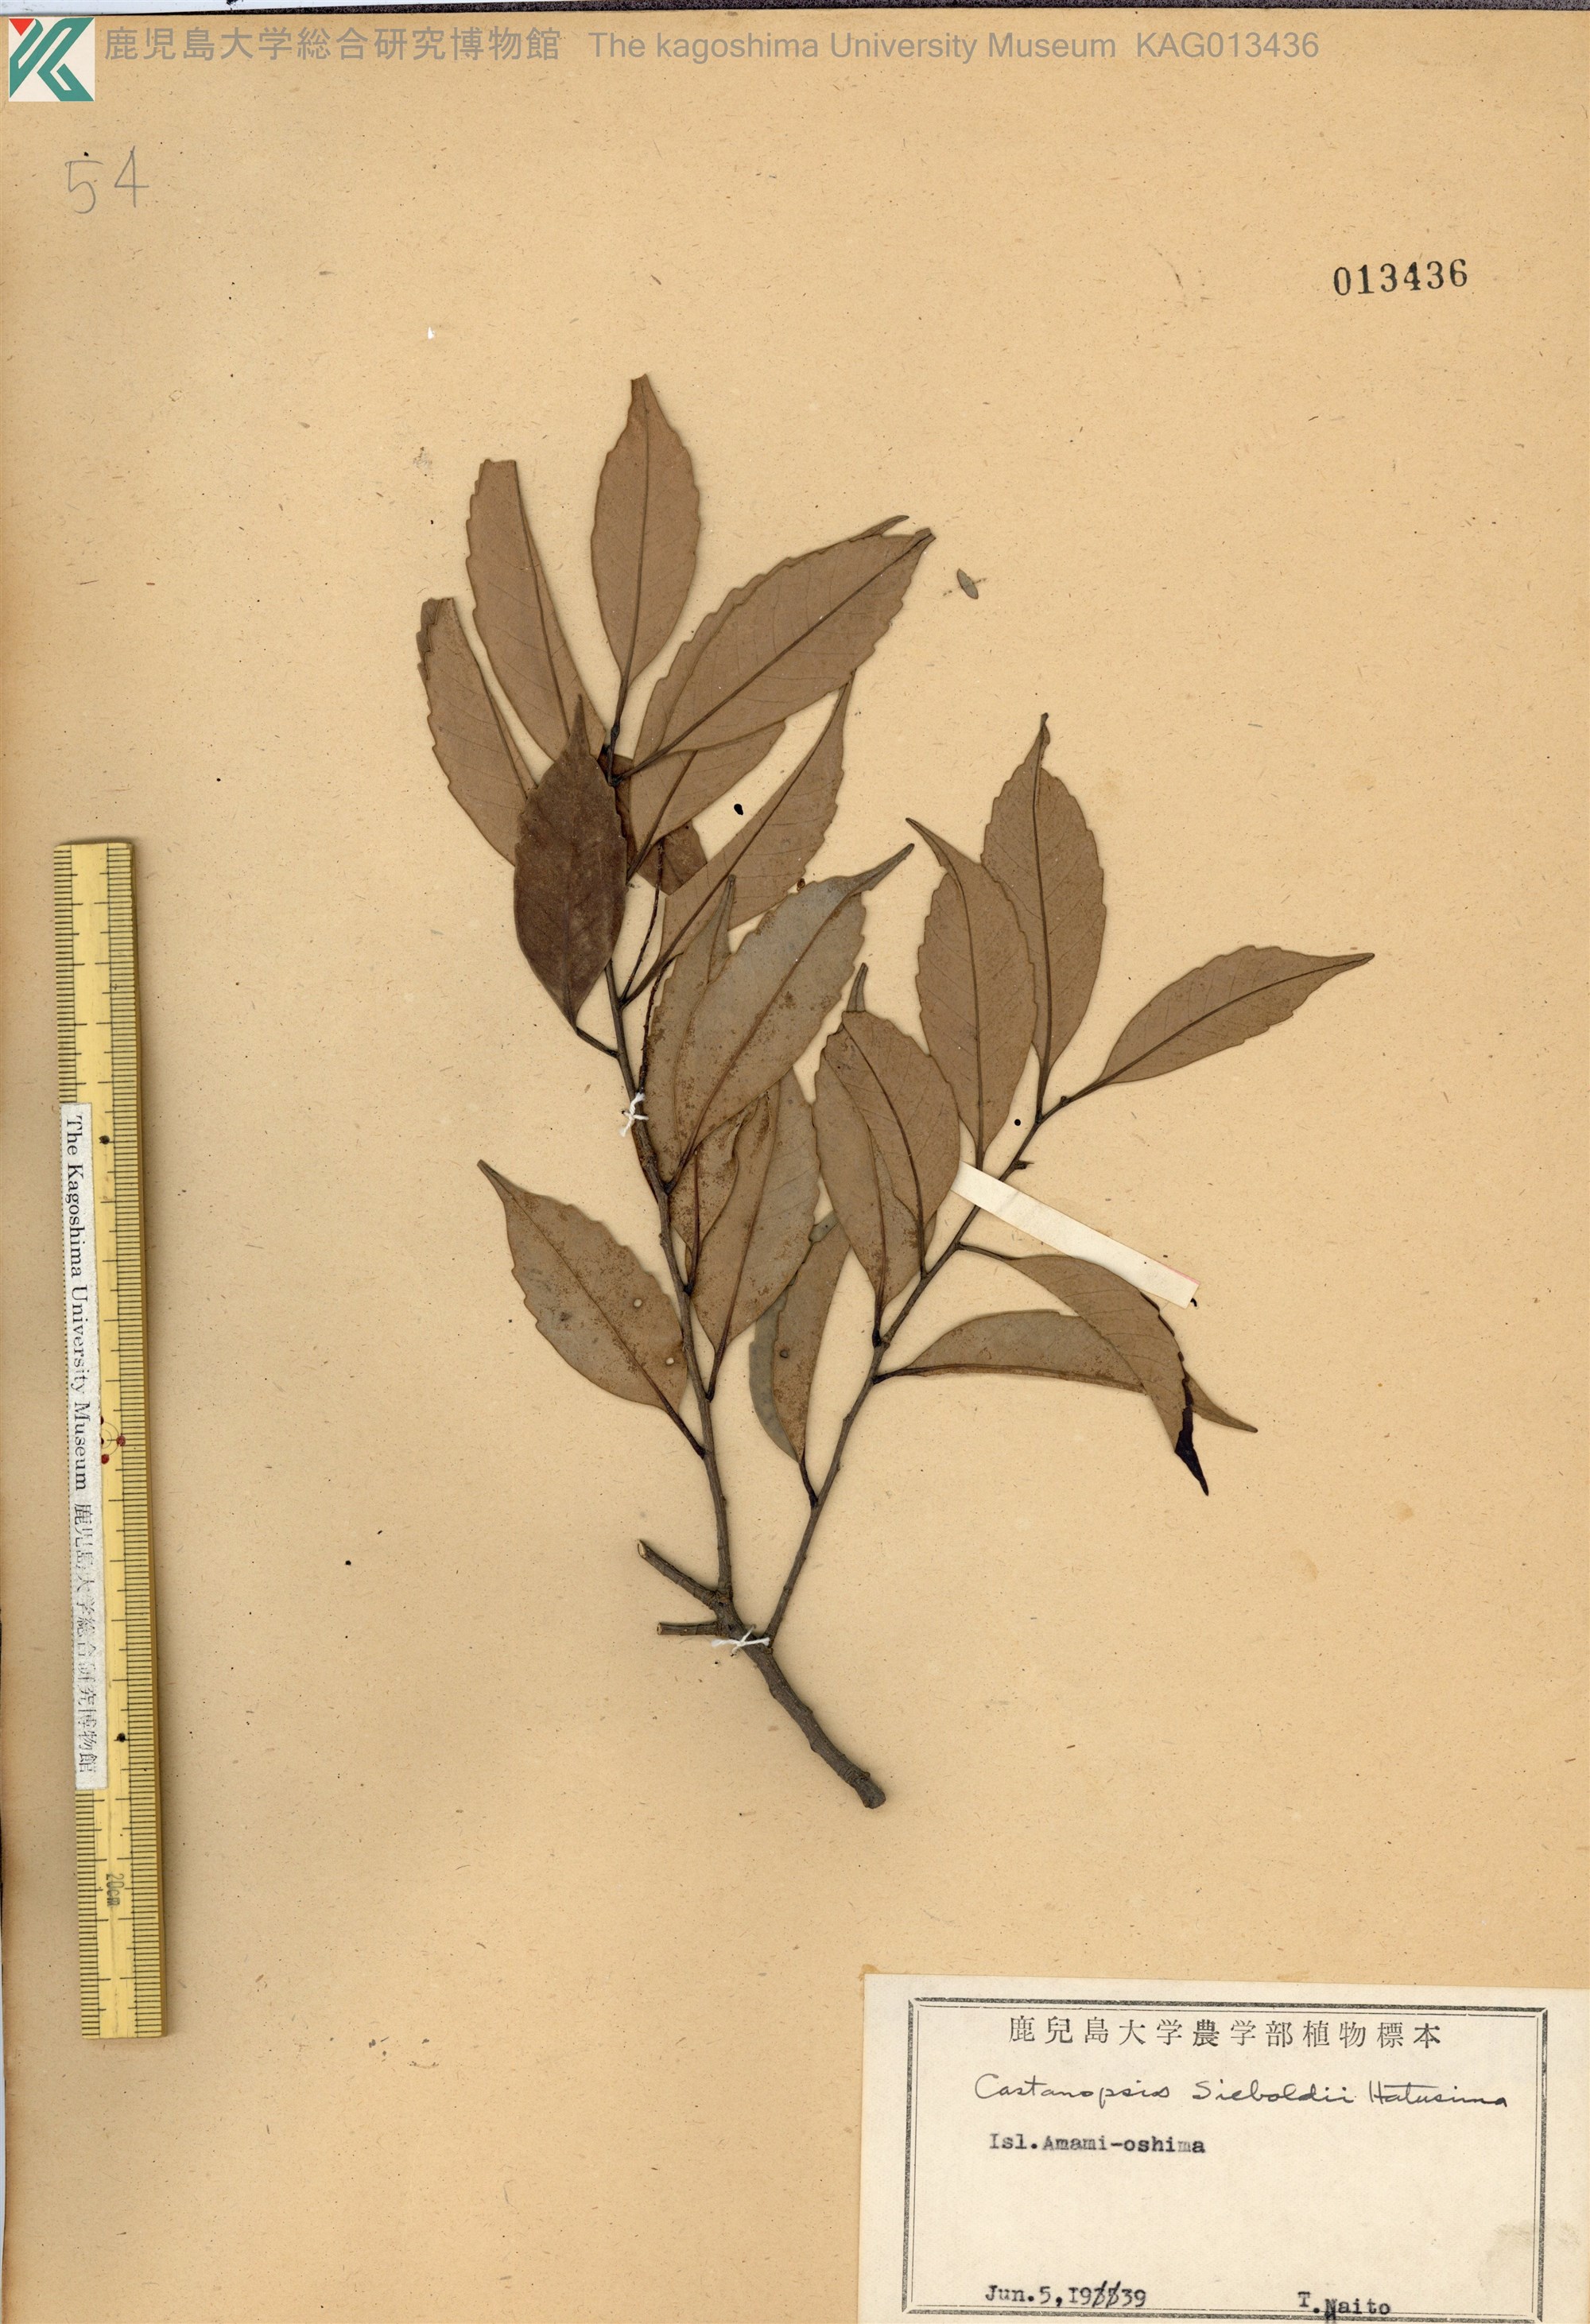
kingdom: Plantae
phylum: Tracheophyta
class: Magnoliopsida
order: Fagales
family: Fagaceae
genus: Castanopsis
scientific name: Castanopsis sieboldii
